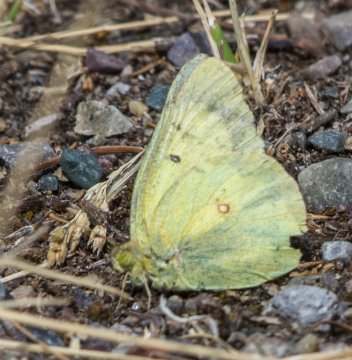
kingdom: Animalia
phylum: Arthropoda
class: Insecta
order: Lepidoptera
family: Pieridae
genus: Colias
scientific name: Colias philodice
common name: Clouded Sulphur
